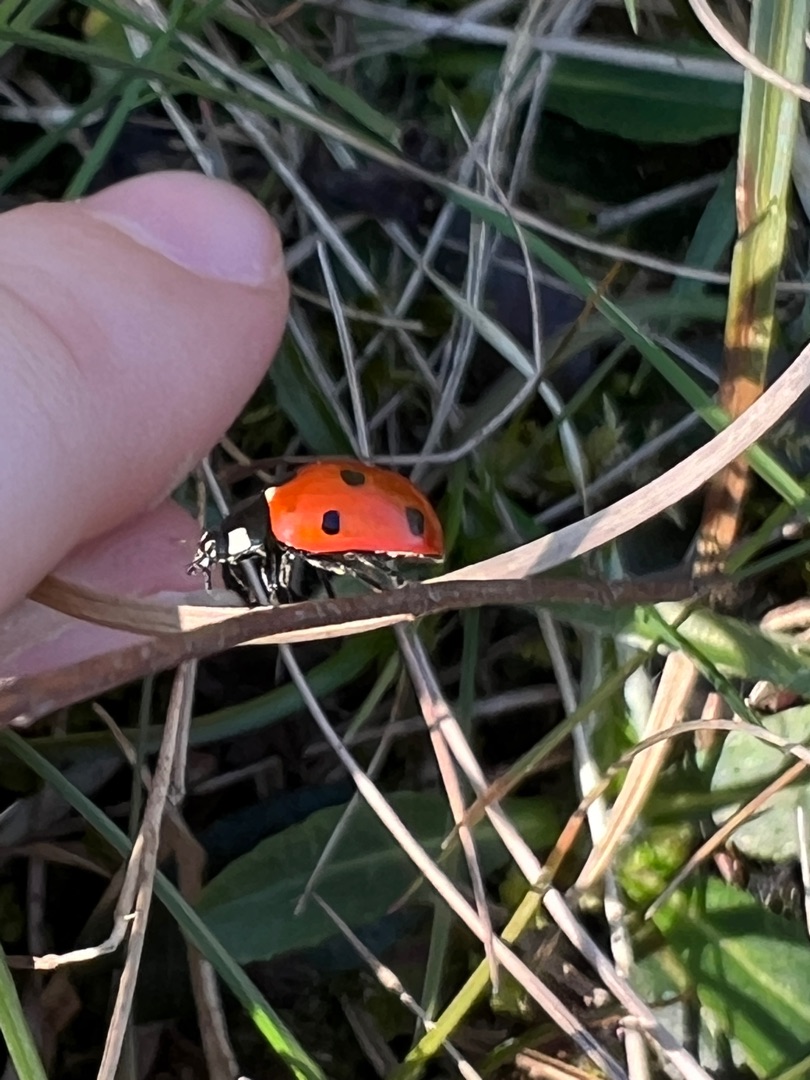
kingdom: Animalia
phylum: Arthropoda
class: Insecta
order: Coleoptera
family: Coccinellidae
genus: Coccinella
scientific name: Coccinella septempunctata
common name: Syvplettet mariehøne
